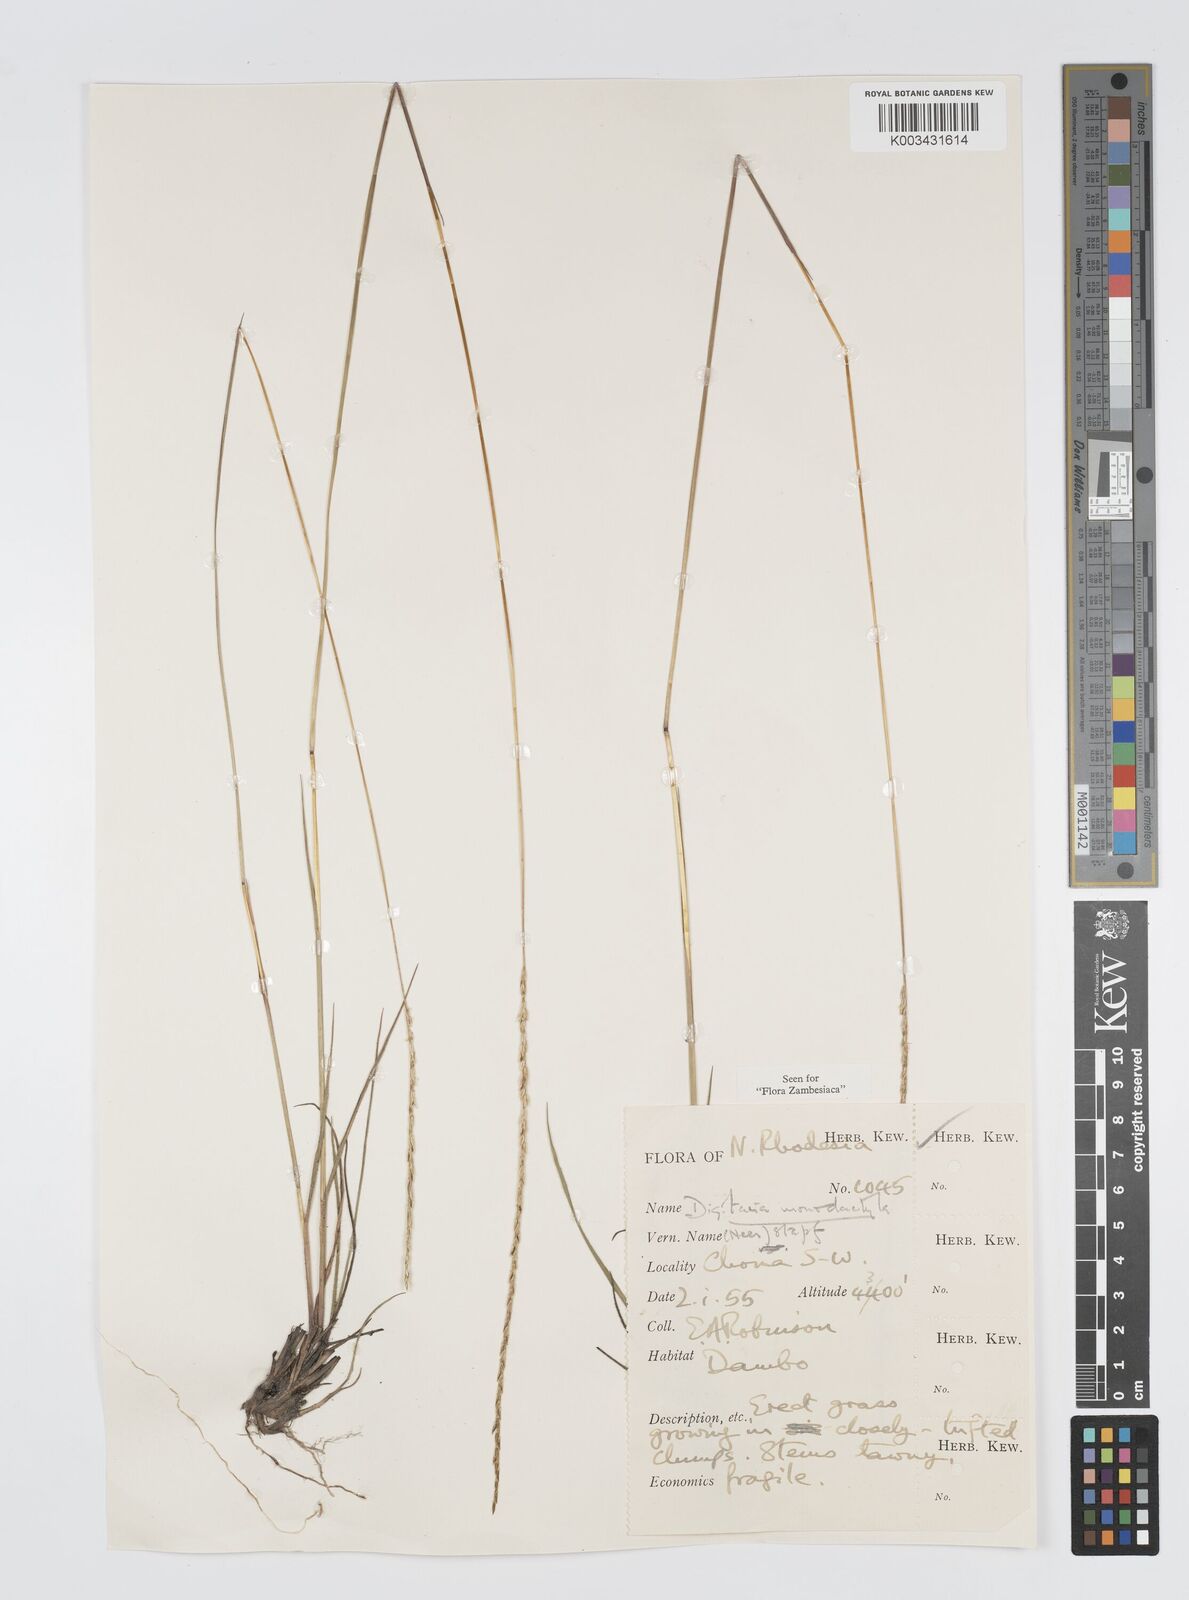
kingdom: Plantae
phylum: Tracheophyta
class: Liliopsida
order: Poales
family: Poaceae
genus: Digitaria
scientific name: Digitaria monodactyla
